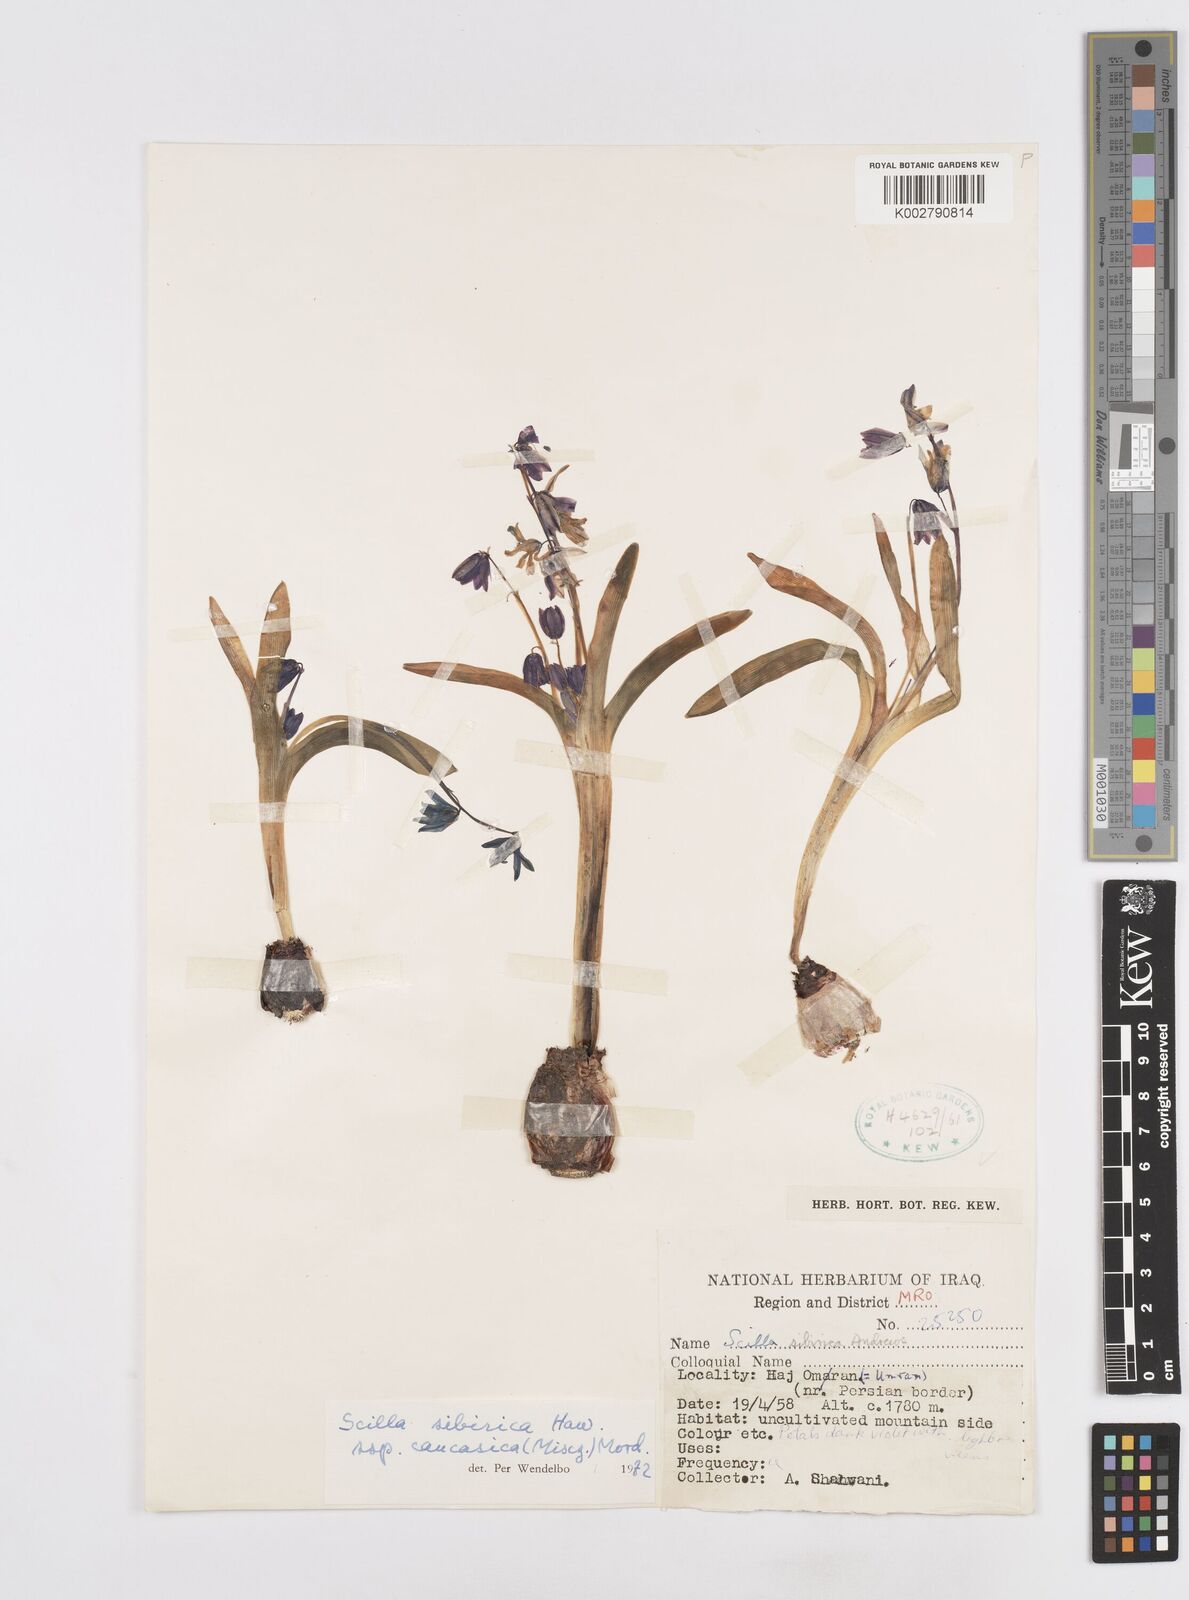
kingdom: Plantae
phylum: Tracheophyta
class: Liliopsida
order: Asparagales
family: Asparagaceae
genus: Scilla
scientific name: Scilla siberica
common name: Siberian squill
